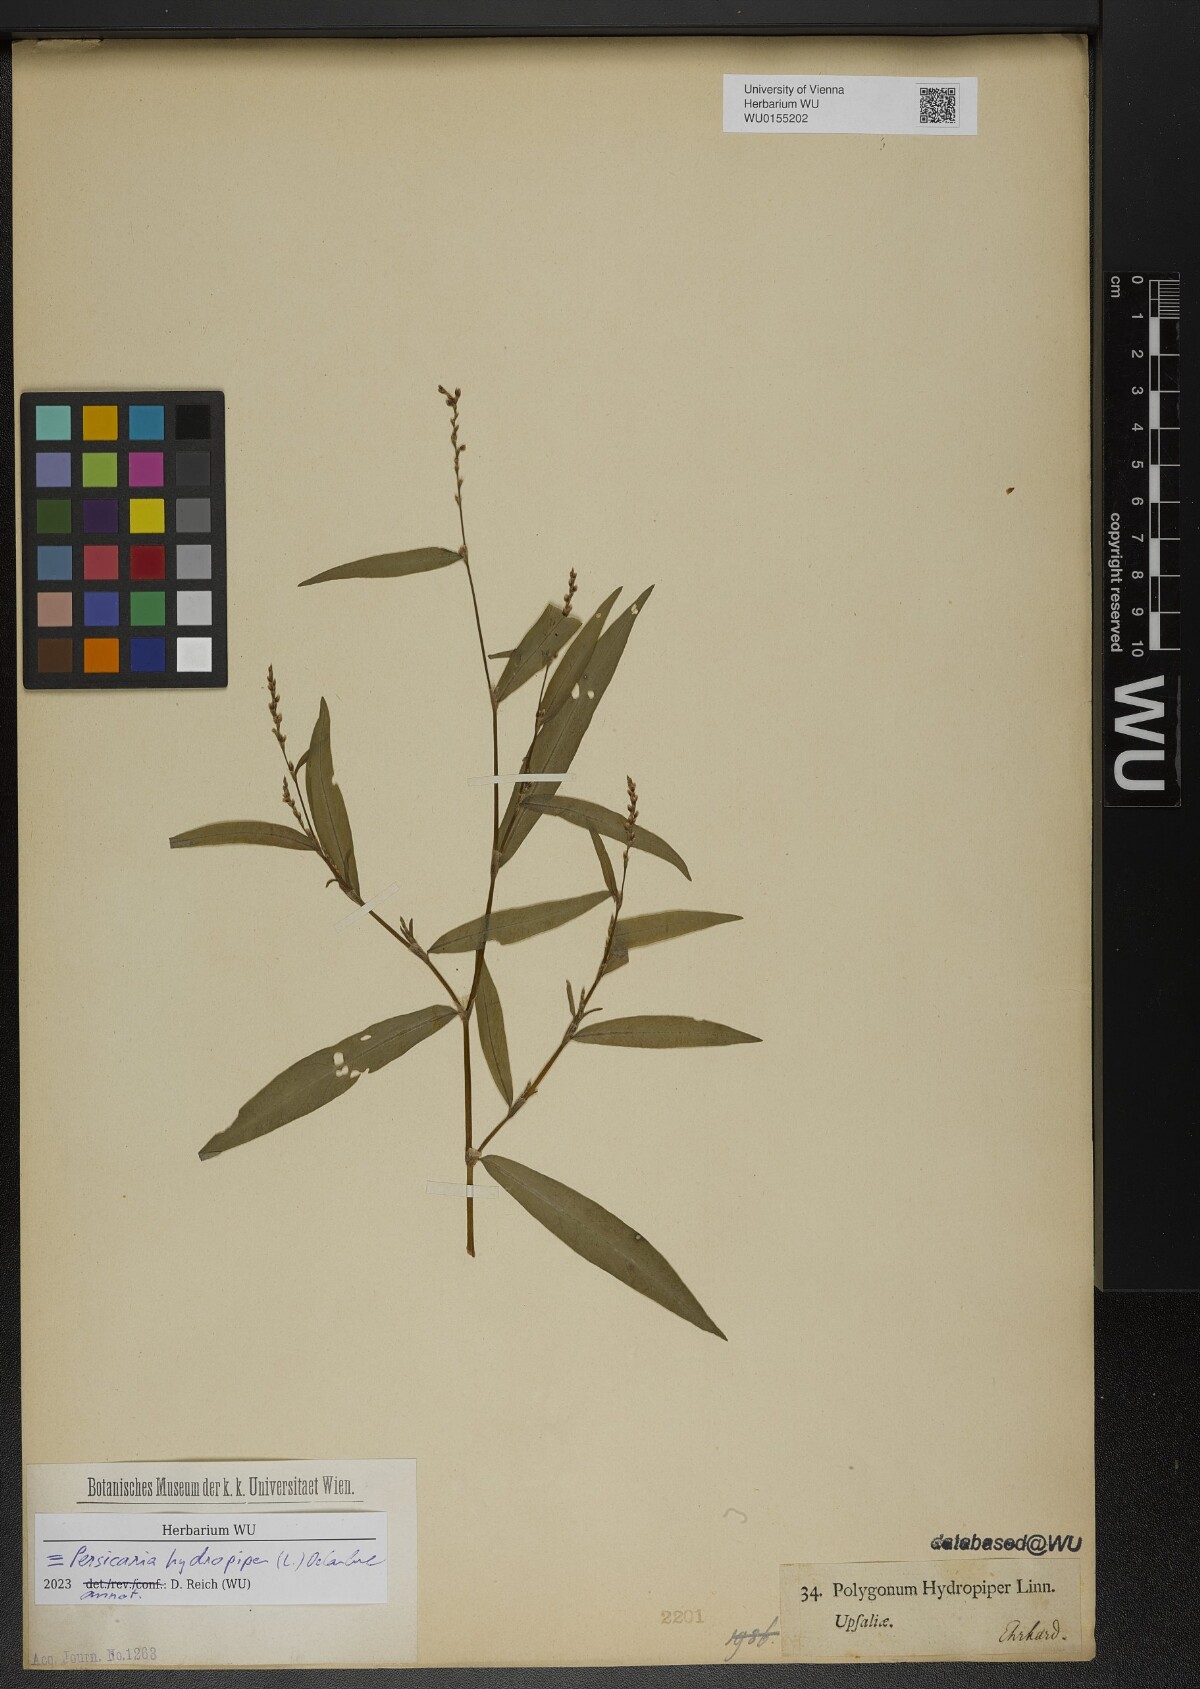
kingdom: Plantae
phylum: Tracheophyta
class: Magnoliopsida
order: Caryophyllales
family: Polygonaceae
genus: Persicaria
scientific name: Persicaria hydropiper
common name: Water-pepper
